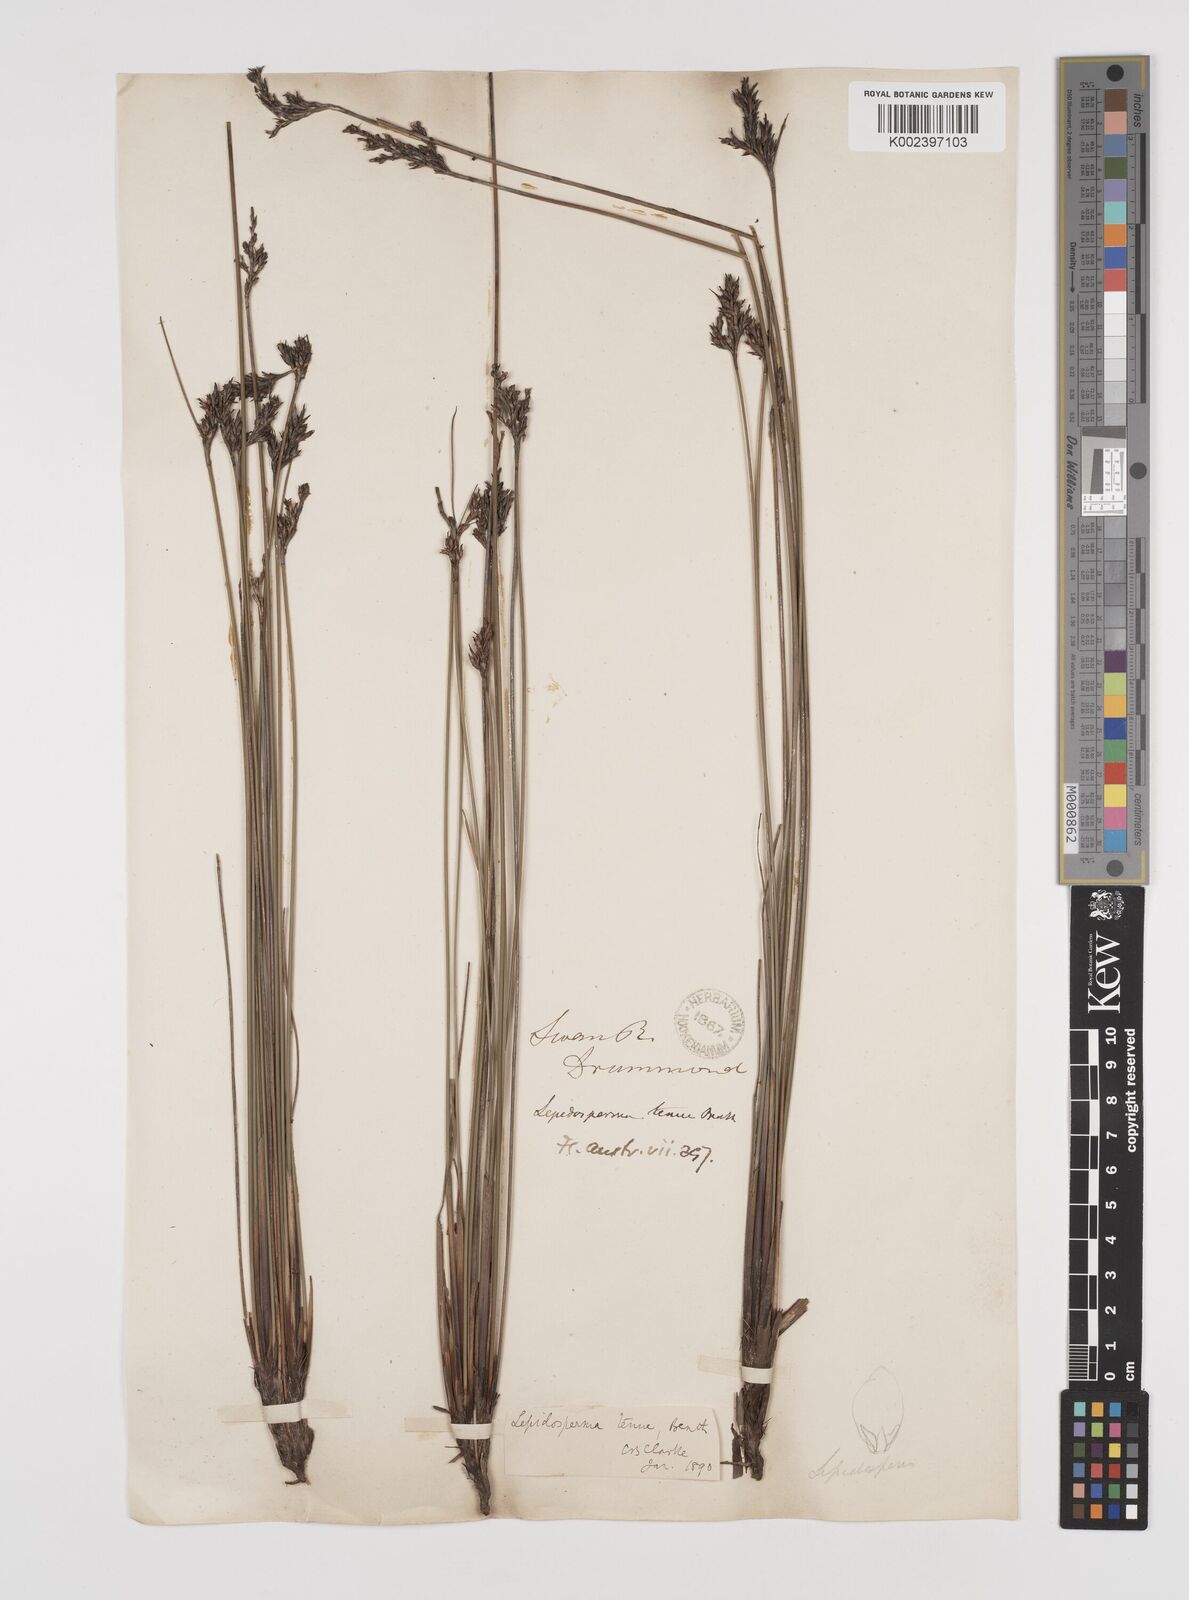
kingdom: Plantae
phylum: Tracheophyta
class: Liliopsida
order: Poales
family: Cyperaceae
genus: Lepidosperma
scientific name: Lepidosperma tenue
